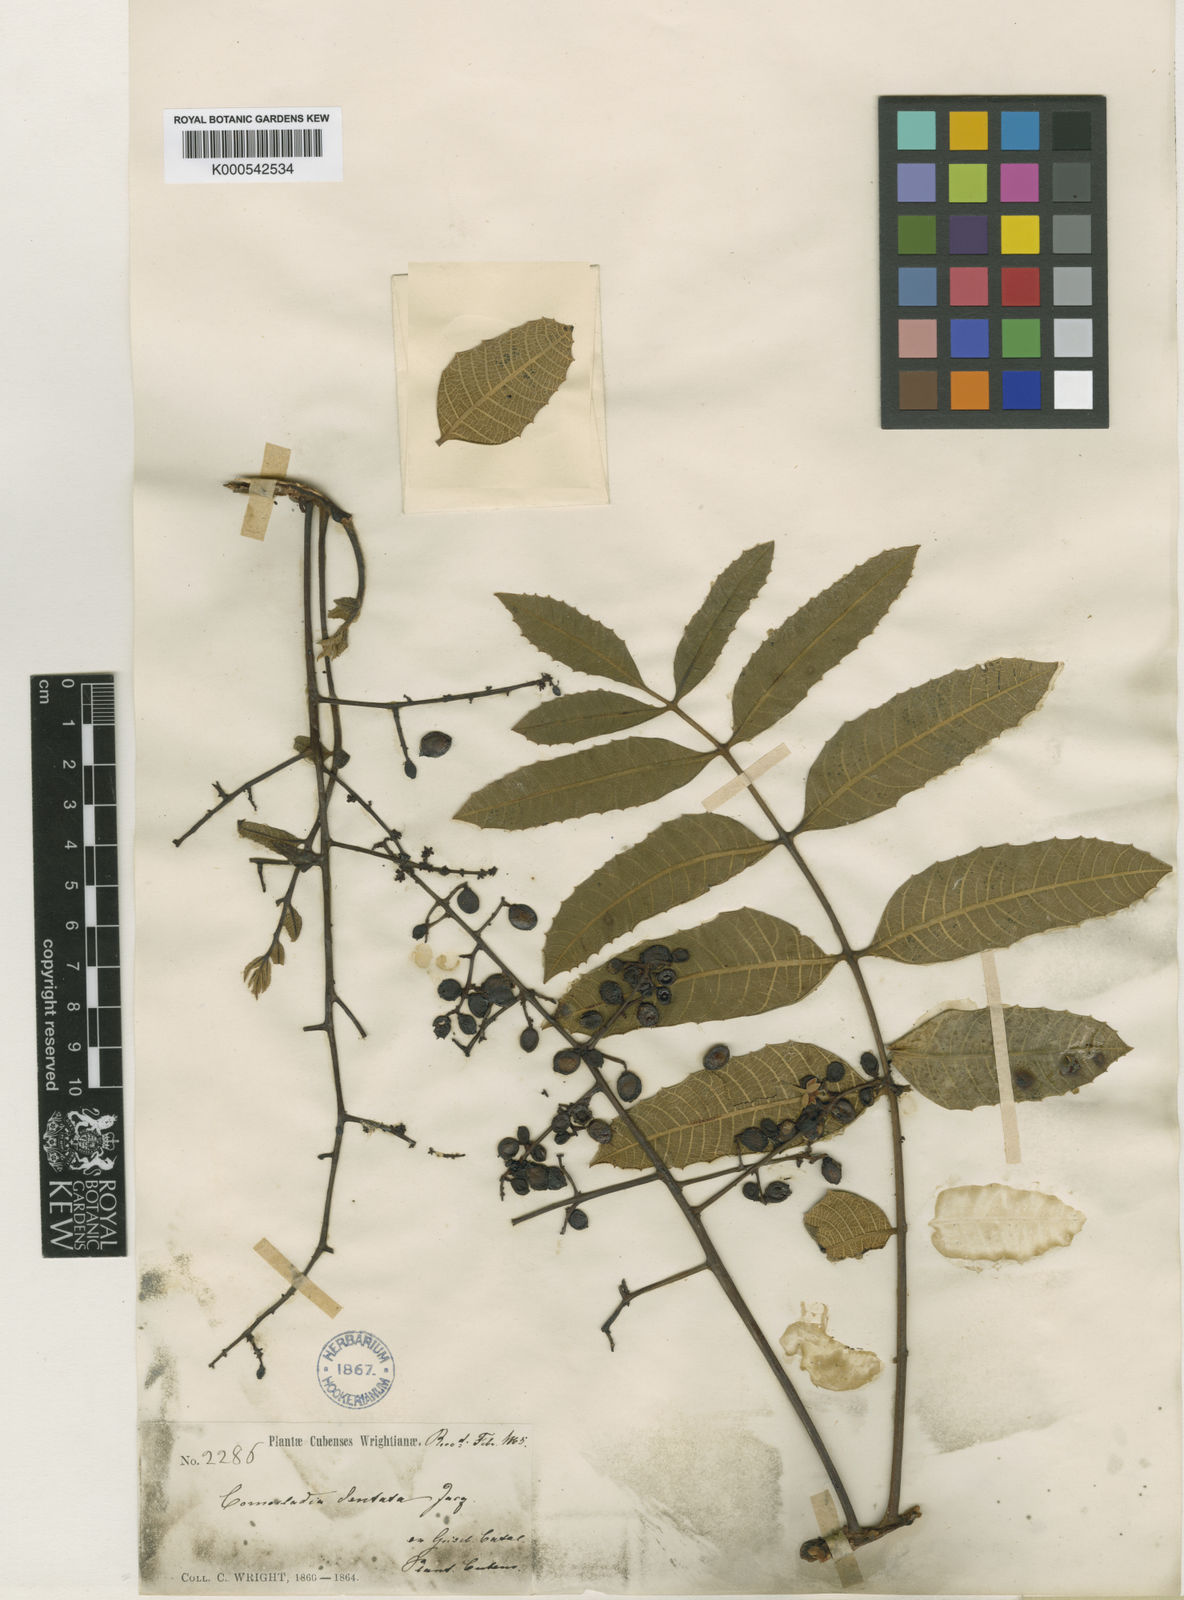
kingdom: Plantae
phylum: Tracheophyta
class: Magnoliopsida
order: Sapindales
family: Anacardiaceae
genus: Comocladia
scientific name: Comocladia dentata
